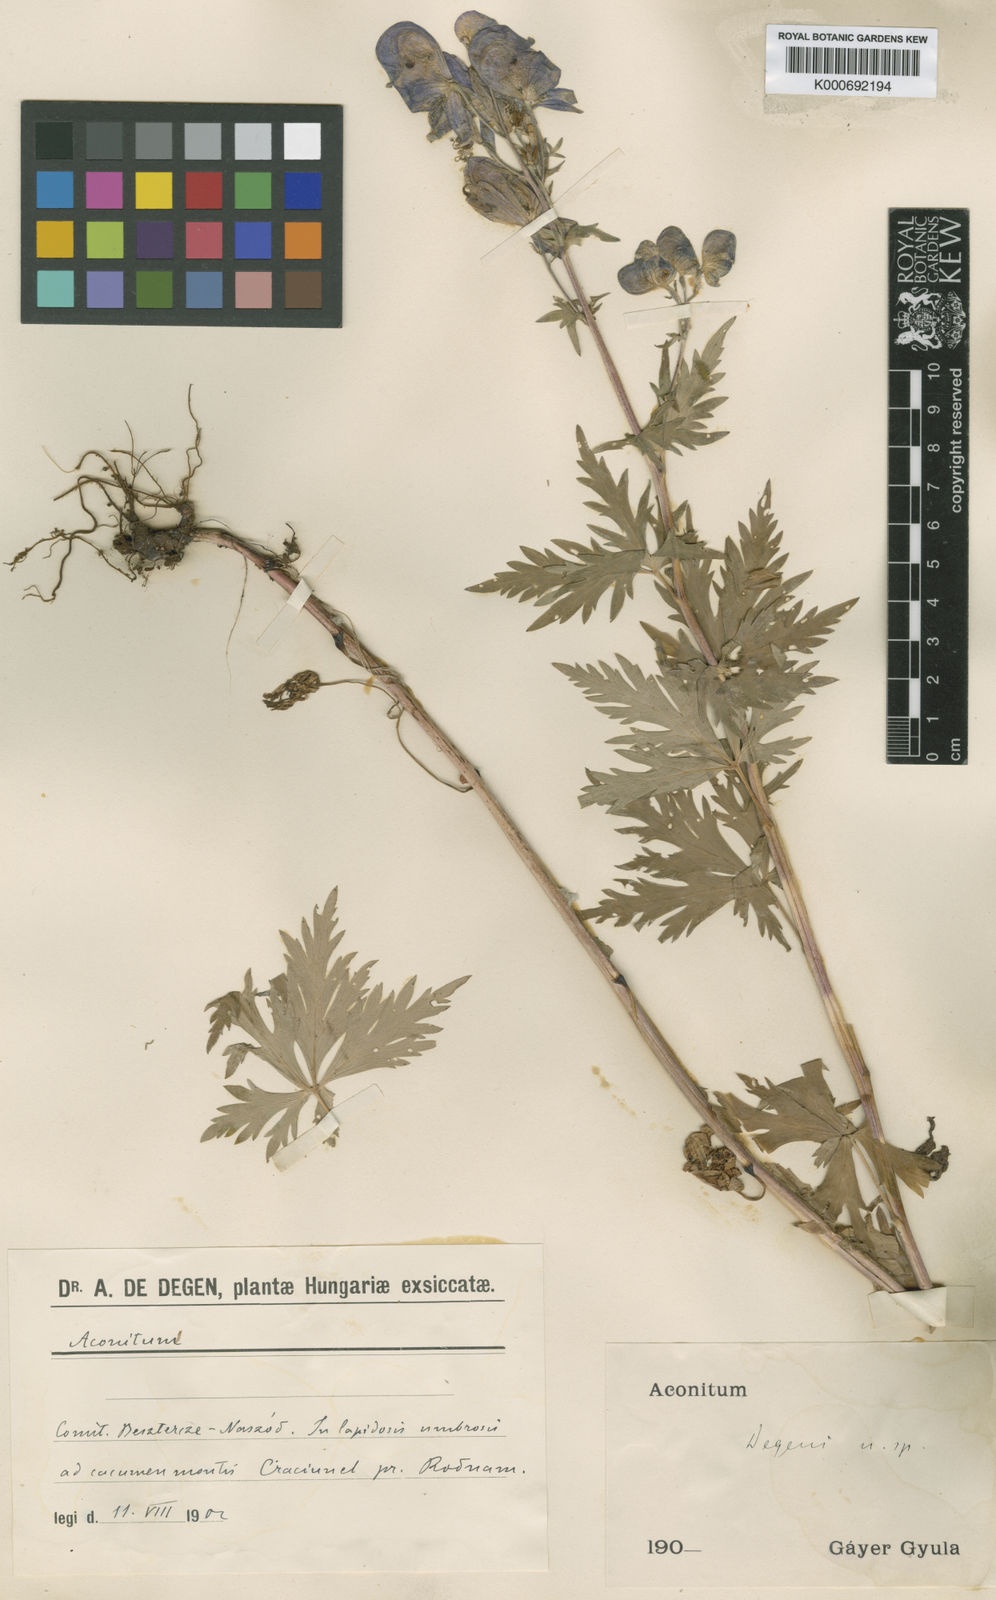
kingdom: Plantae
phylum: Tracheophyta
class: Magnoliopsida
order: Ranunculales
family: Ranunculaceae
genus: Aconitum
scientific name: Aconitum
